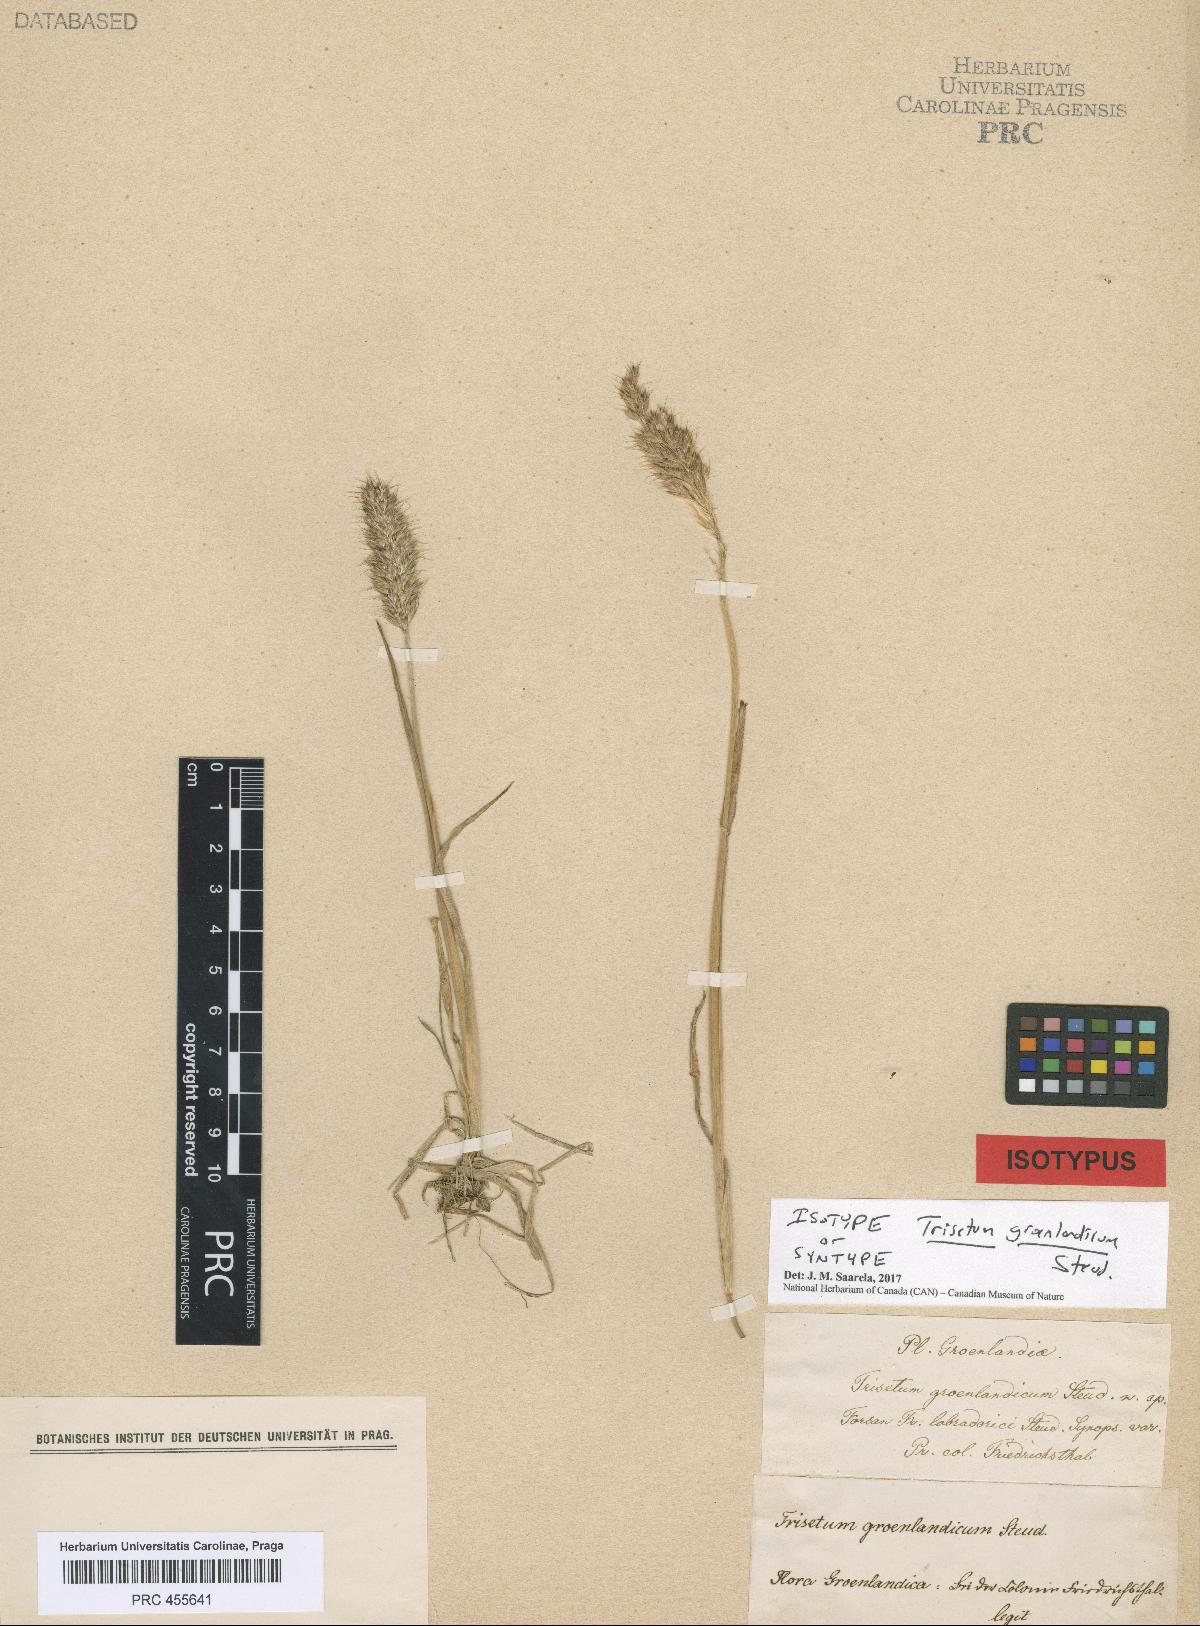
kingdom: Plantae
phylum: Tracheophyta
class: Liliopsida
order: Poales
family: Poaceae
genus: Koeleria
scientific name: Koeleria spicata
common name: Mountain trisetum
